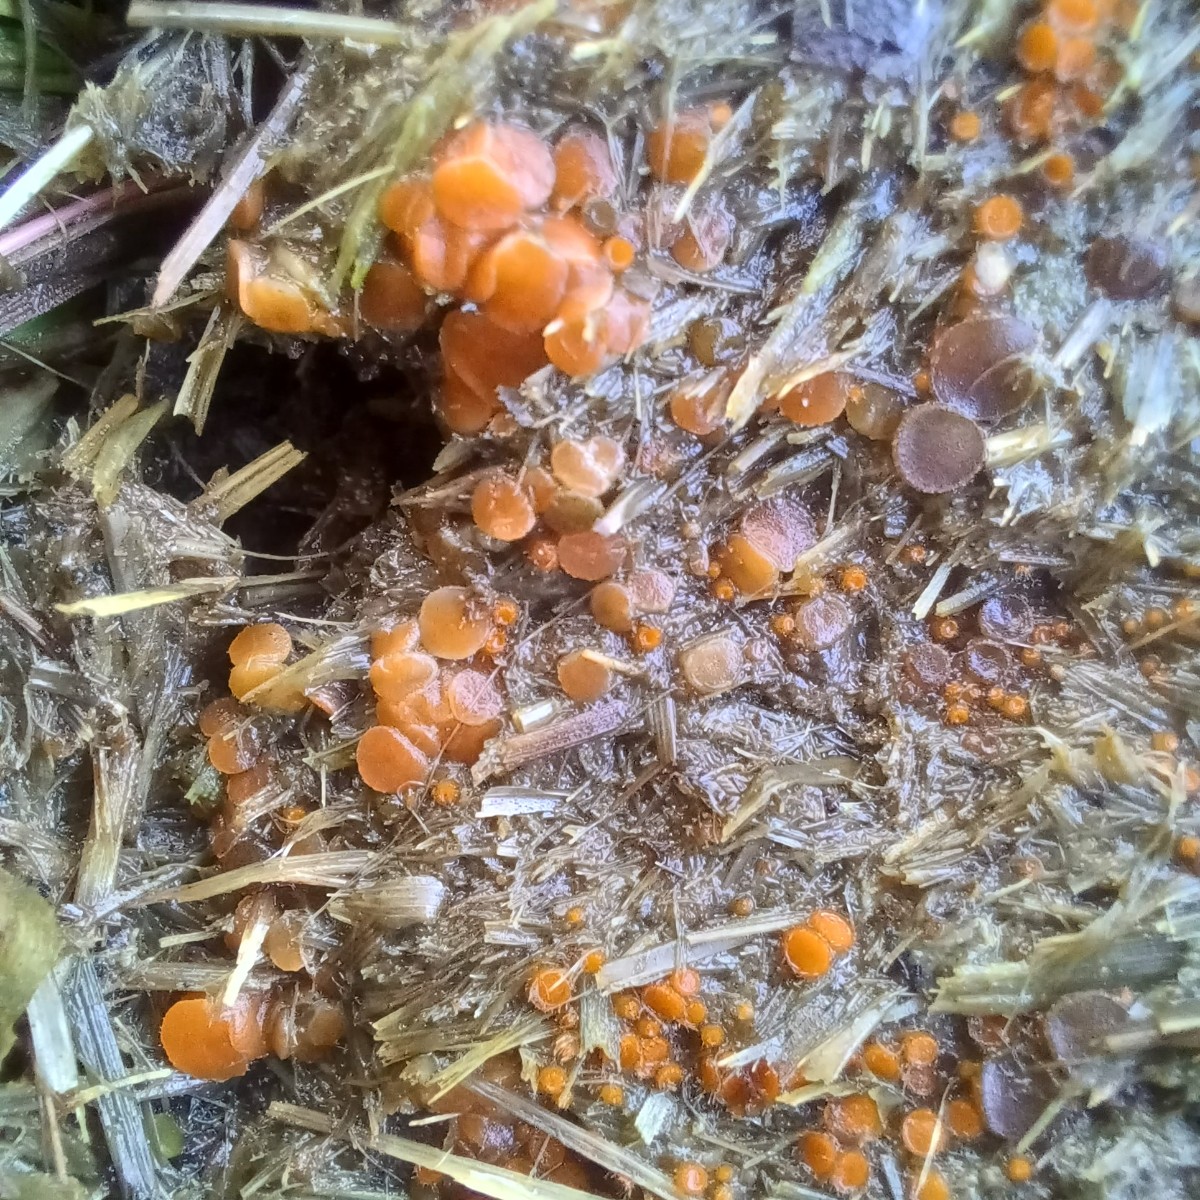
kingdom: Fungi
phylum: Ascomycota
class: Pezizomycetes
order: Pezizales
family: Pyronemataceae
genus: Cheilymenia
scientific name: Cheilymenia granulata
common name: møgbæger
